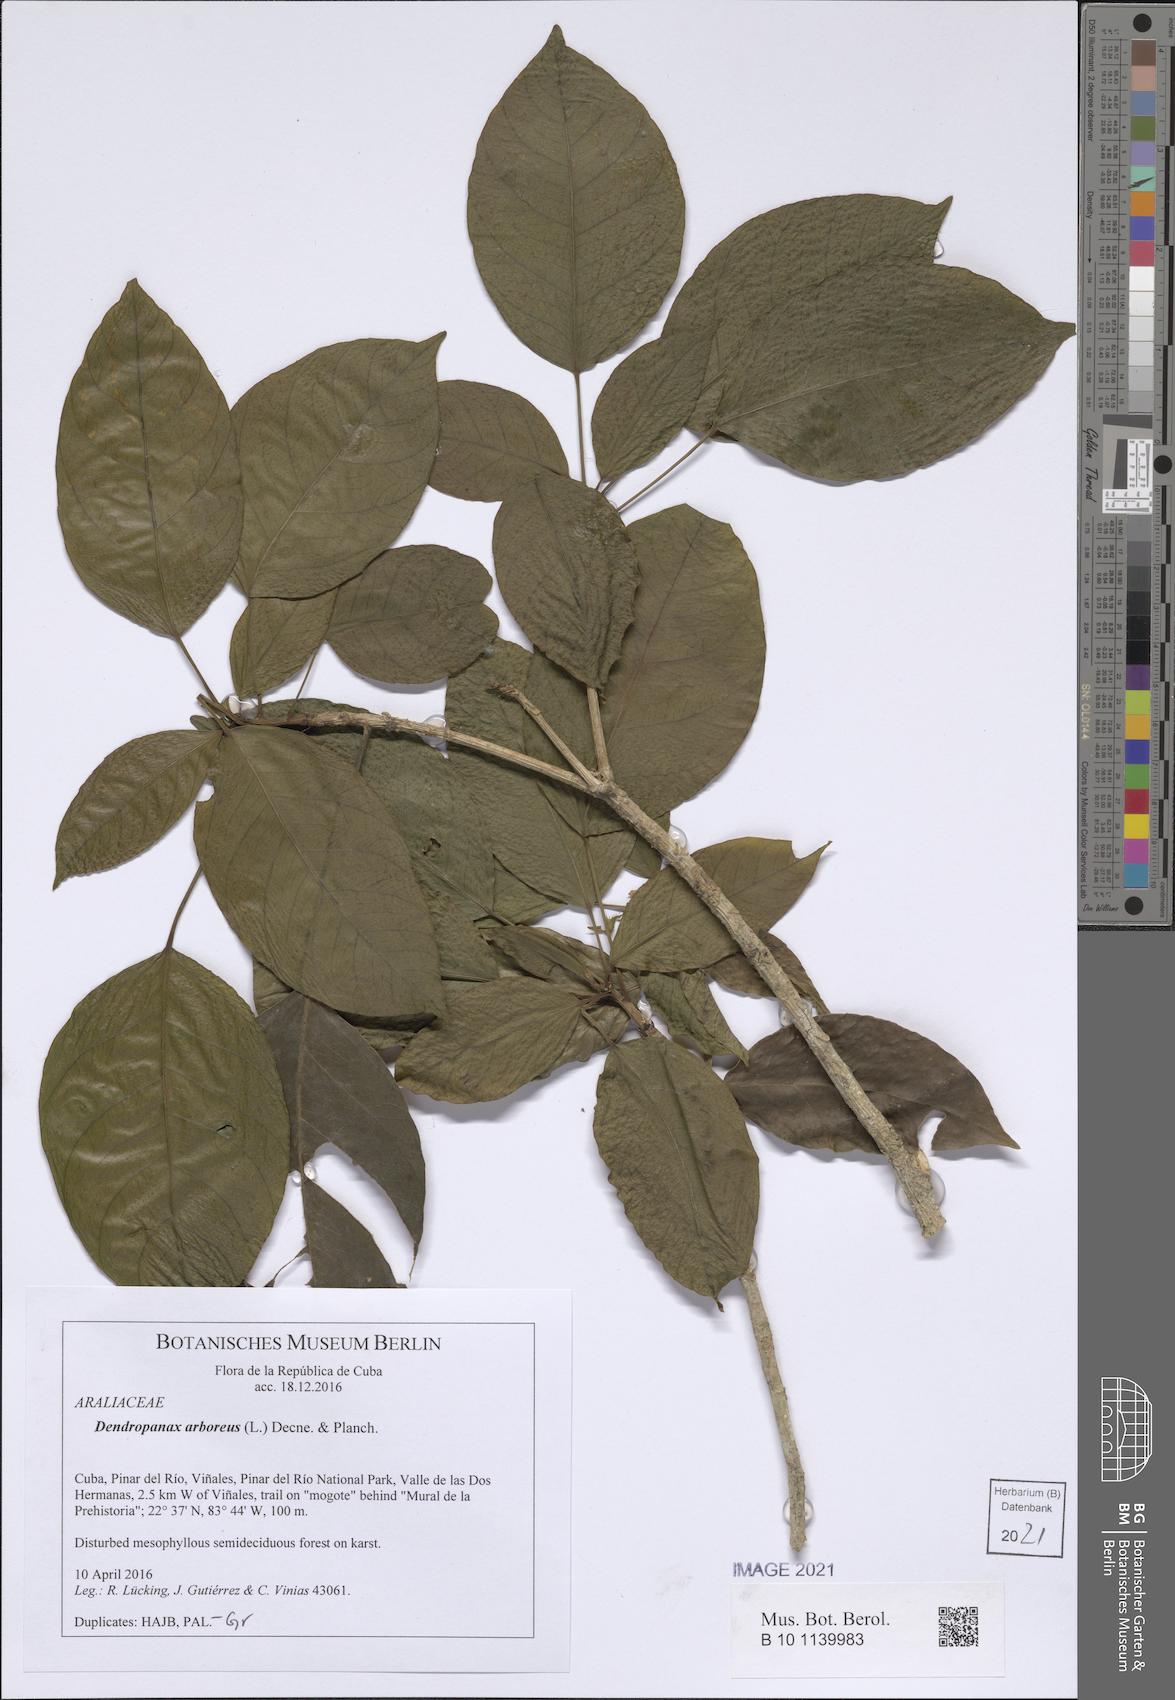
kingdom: Plantae
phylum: Tracheophyta
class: Magnoliopsida
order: Apiales
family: Araliaceae
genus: Dendropanax
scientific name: Dendropanax arboreus
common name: Potato-wood
